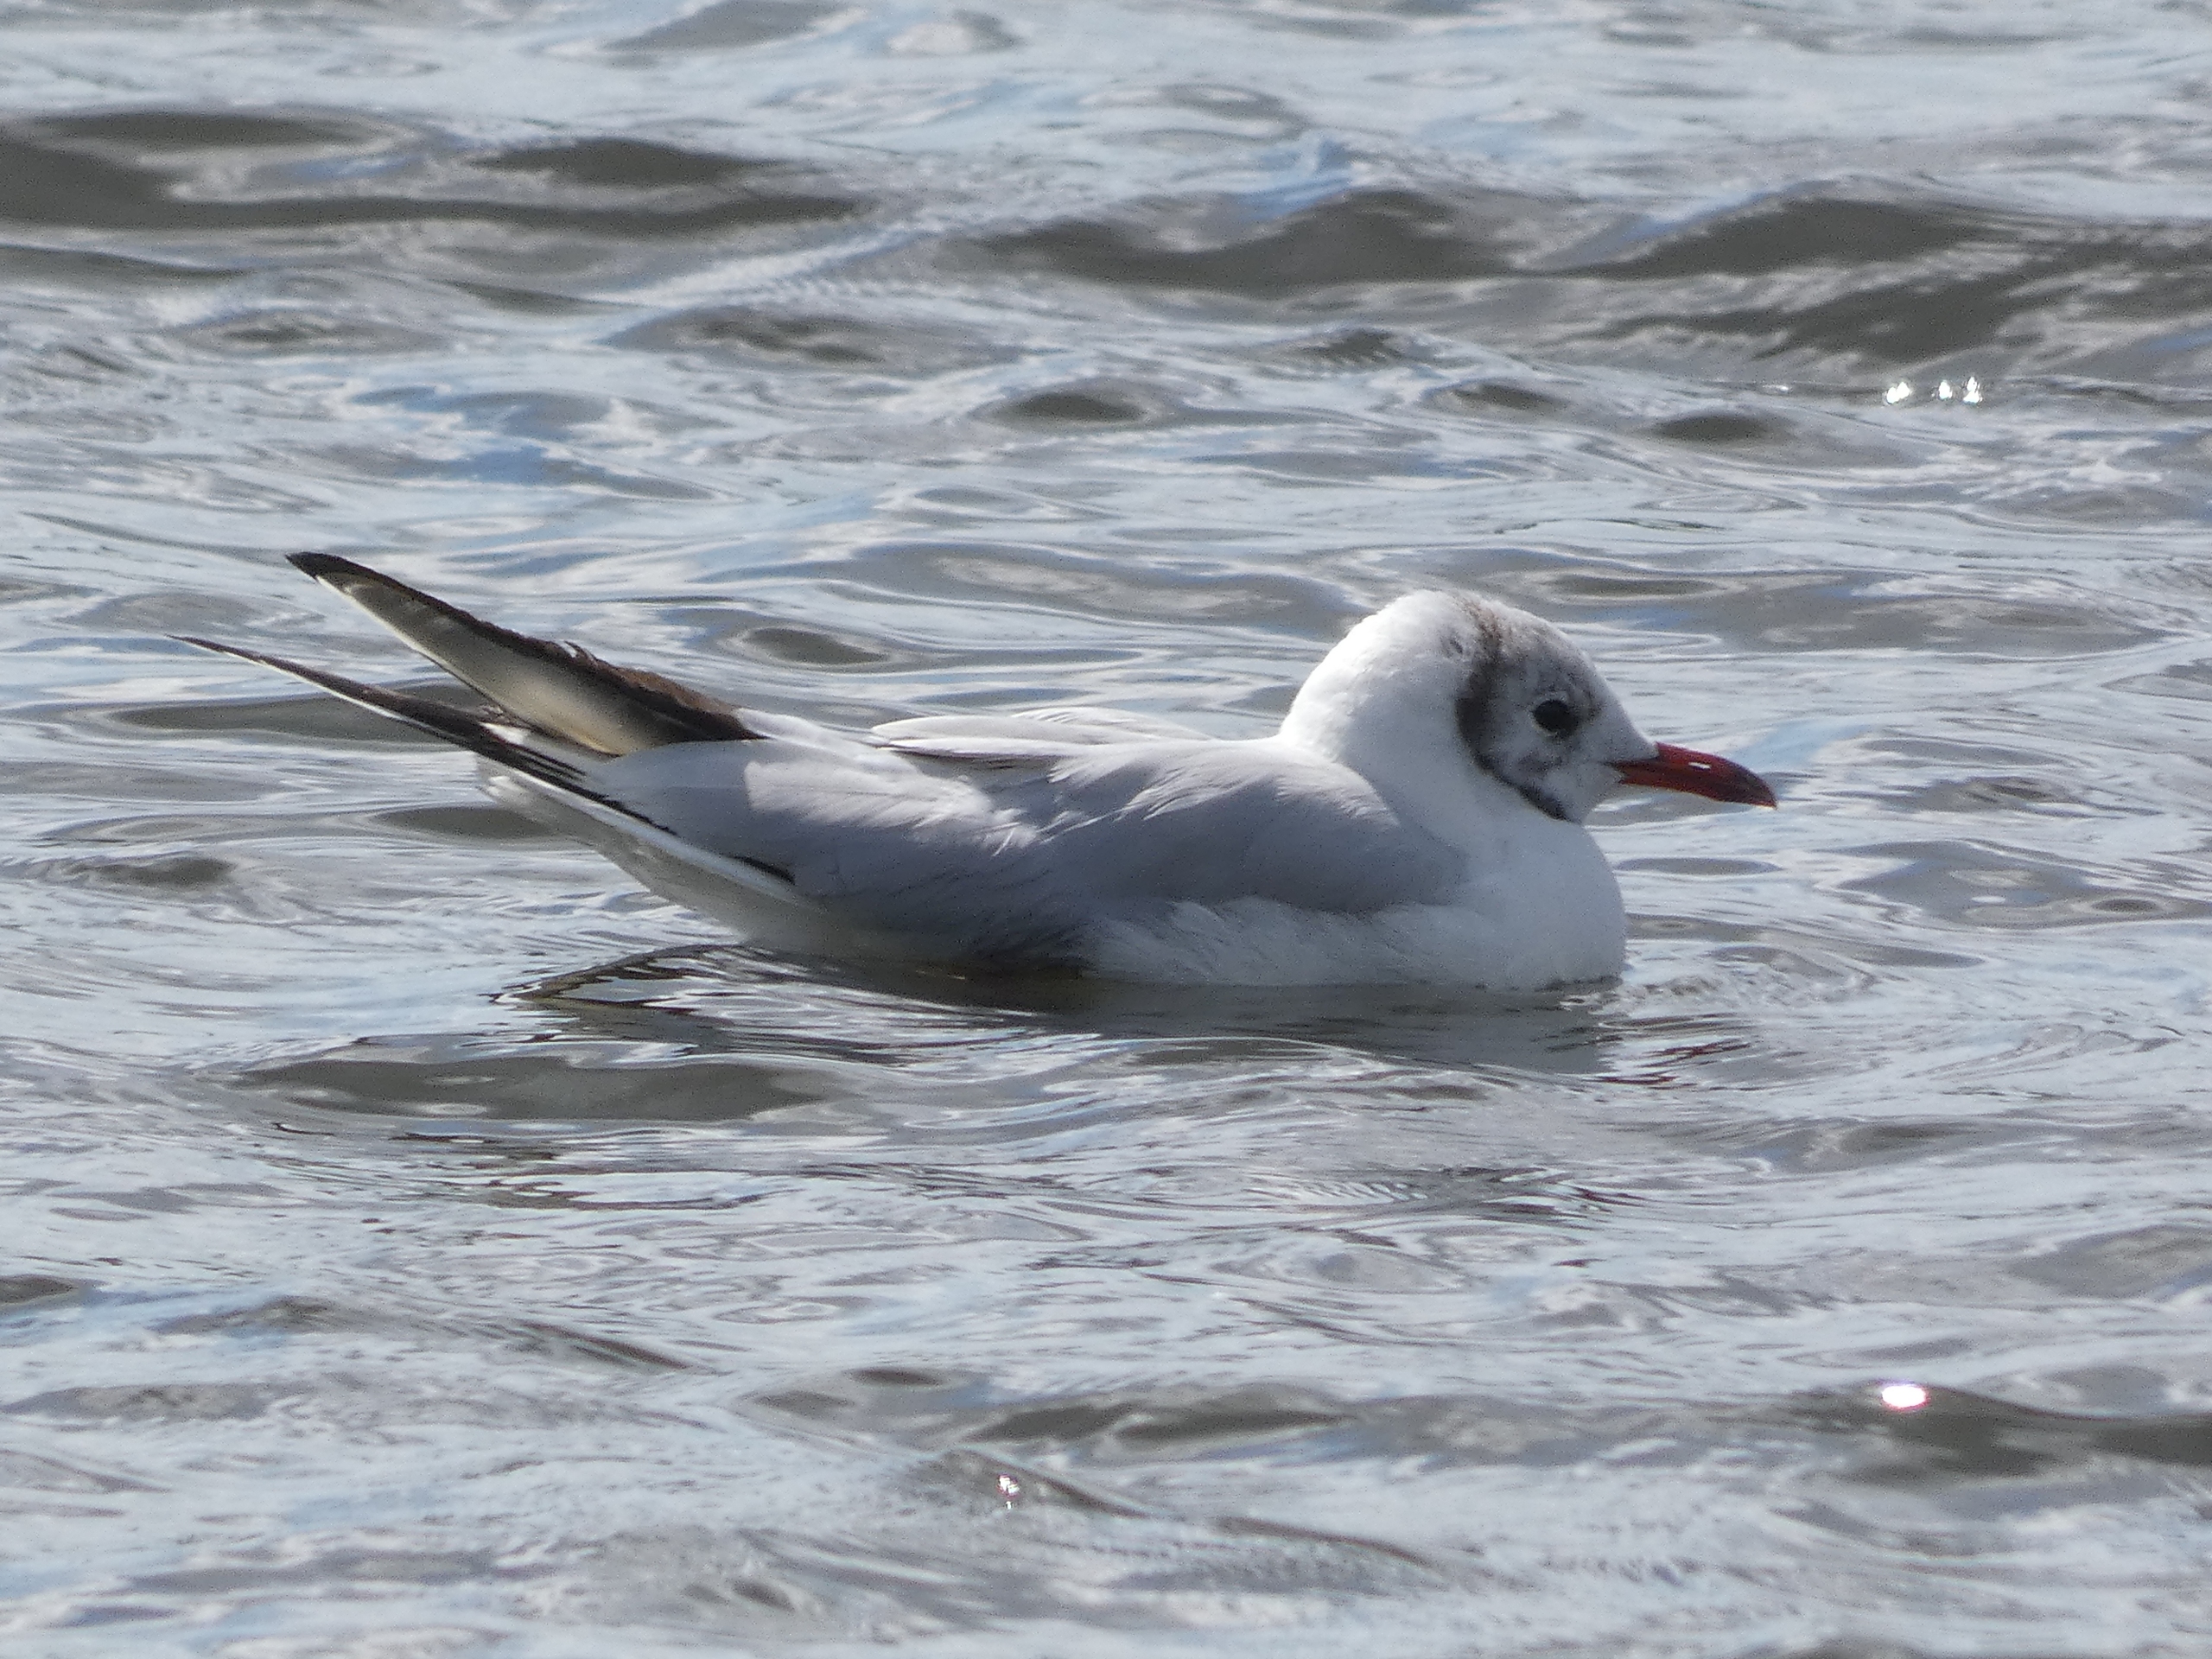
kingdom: Animalia
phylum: Chordata
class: Aves
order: Charadriiformes
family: Laridae
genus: Chroicocephalus
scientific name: Chroicocephalus ridibundus
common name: Hættemåge
